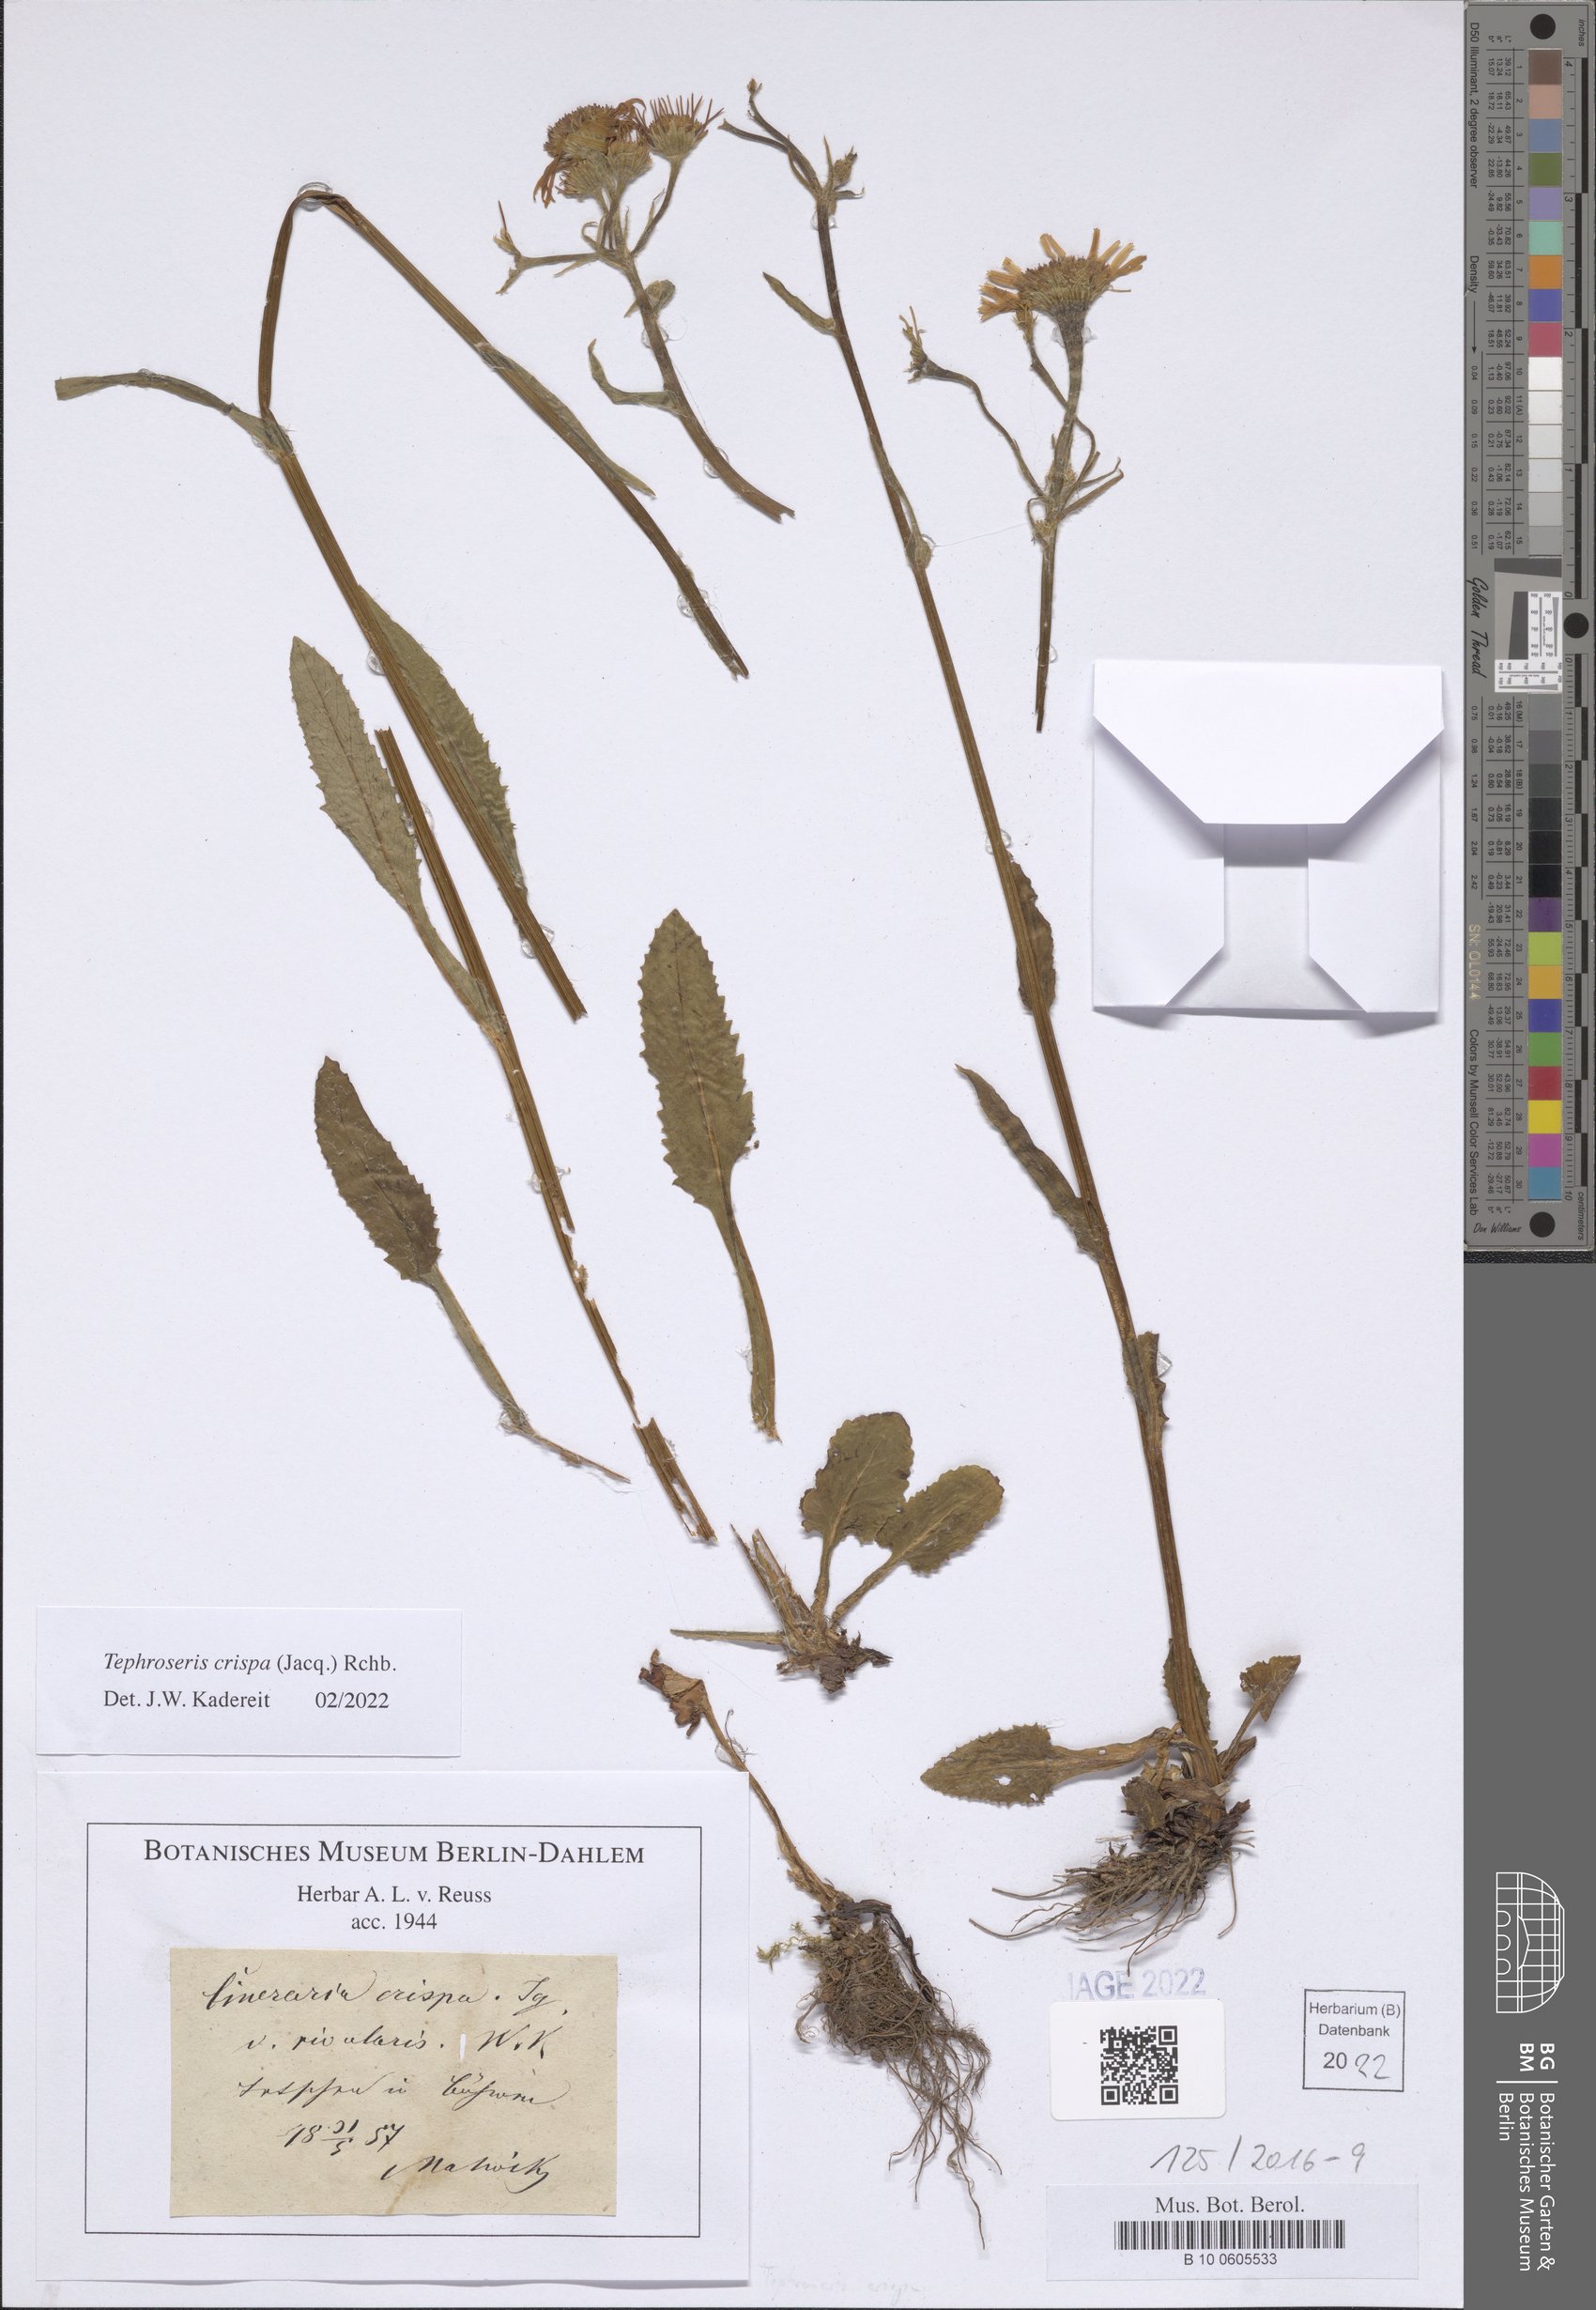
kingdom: Plantae
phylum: Tracheophyta
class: Magnoliopsida
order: Asterales
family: Asteraceae
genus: Tephroseris
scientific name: Tephroseris crispa
